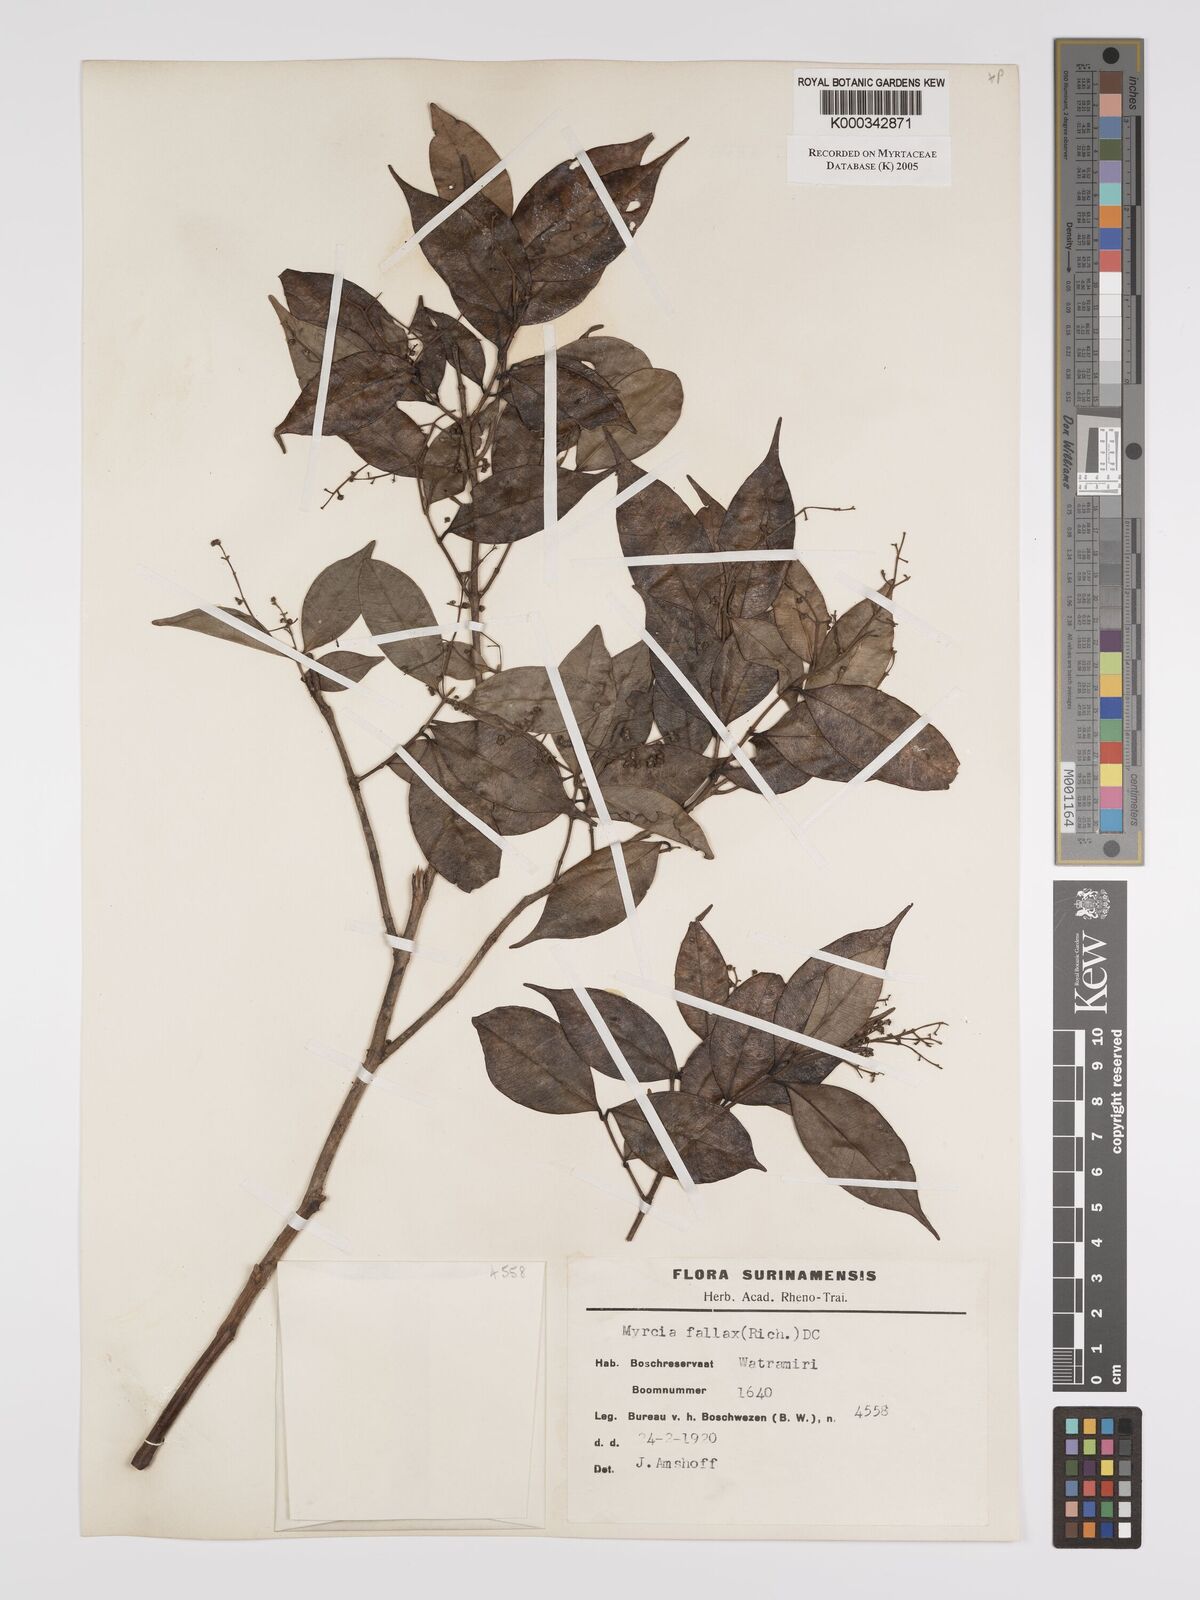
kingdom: Plantae
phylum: Tracheophyta
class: Magnoliopsida
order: Myrtales
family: Myrtaceae
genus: Myrcia
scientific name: Myrcia splendens
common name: Surinam cherry
